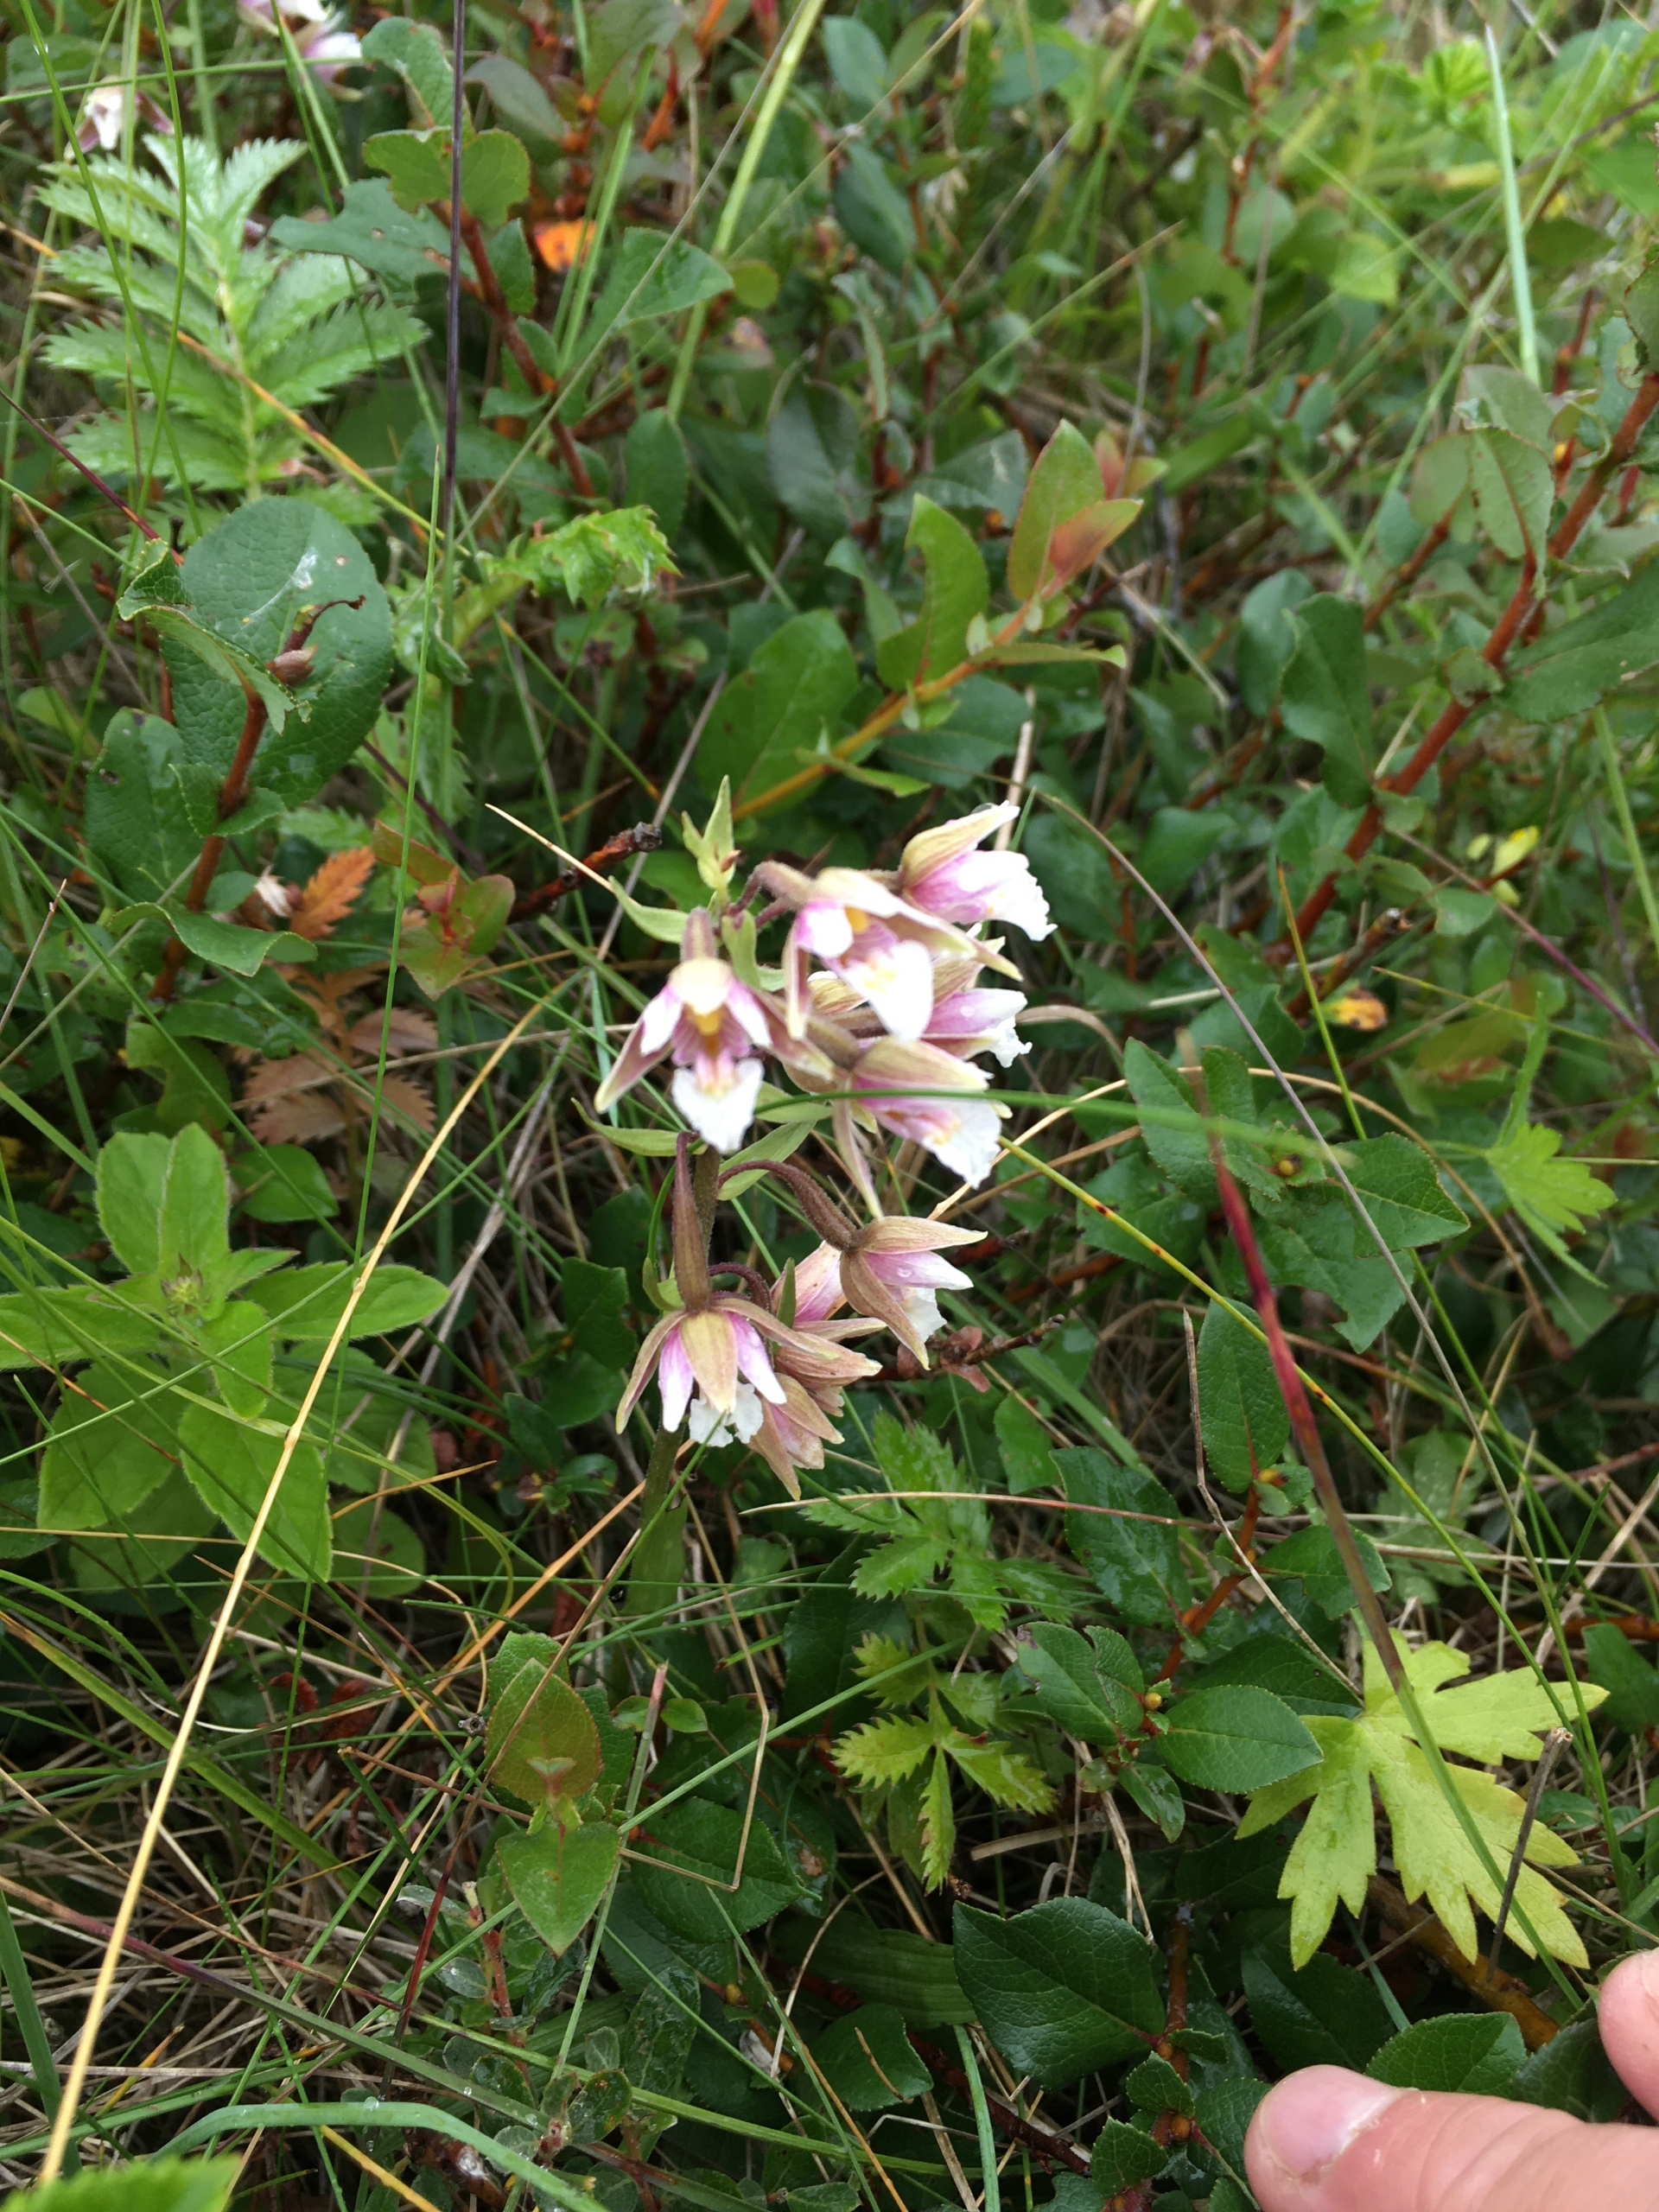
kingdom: Plantae
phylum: Tracheophyta
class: Liliopsida
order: Asparagales
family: Orchidaceae
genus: Epipactis
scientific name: Epipactis palustris
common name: Sump-hullæbe
